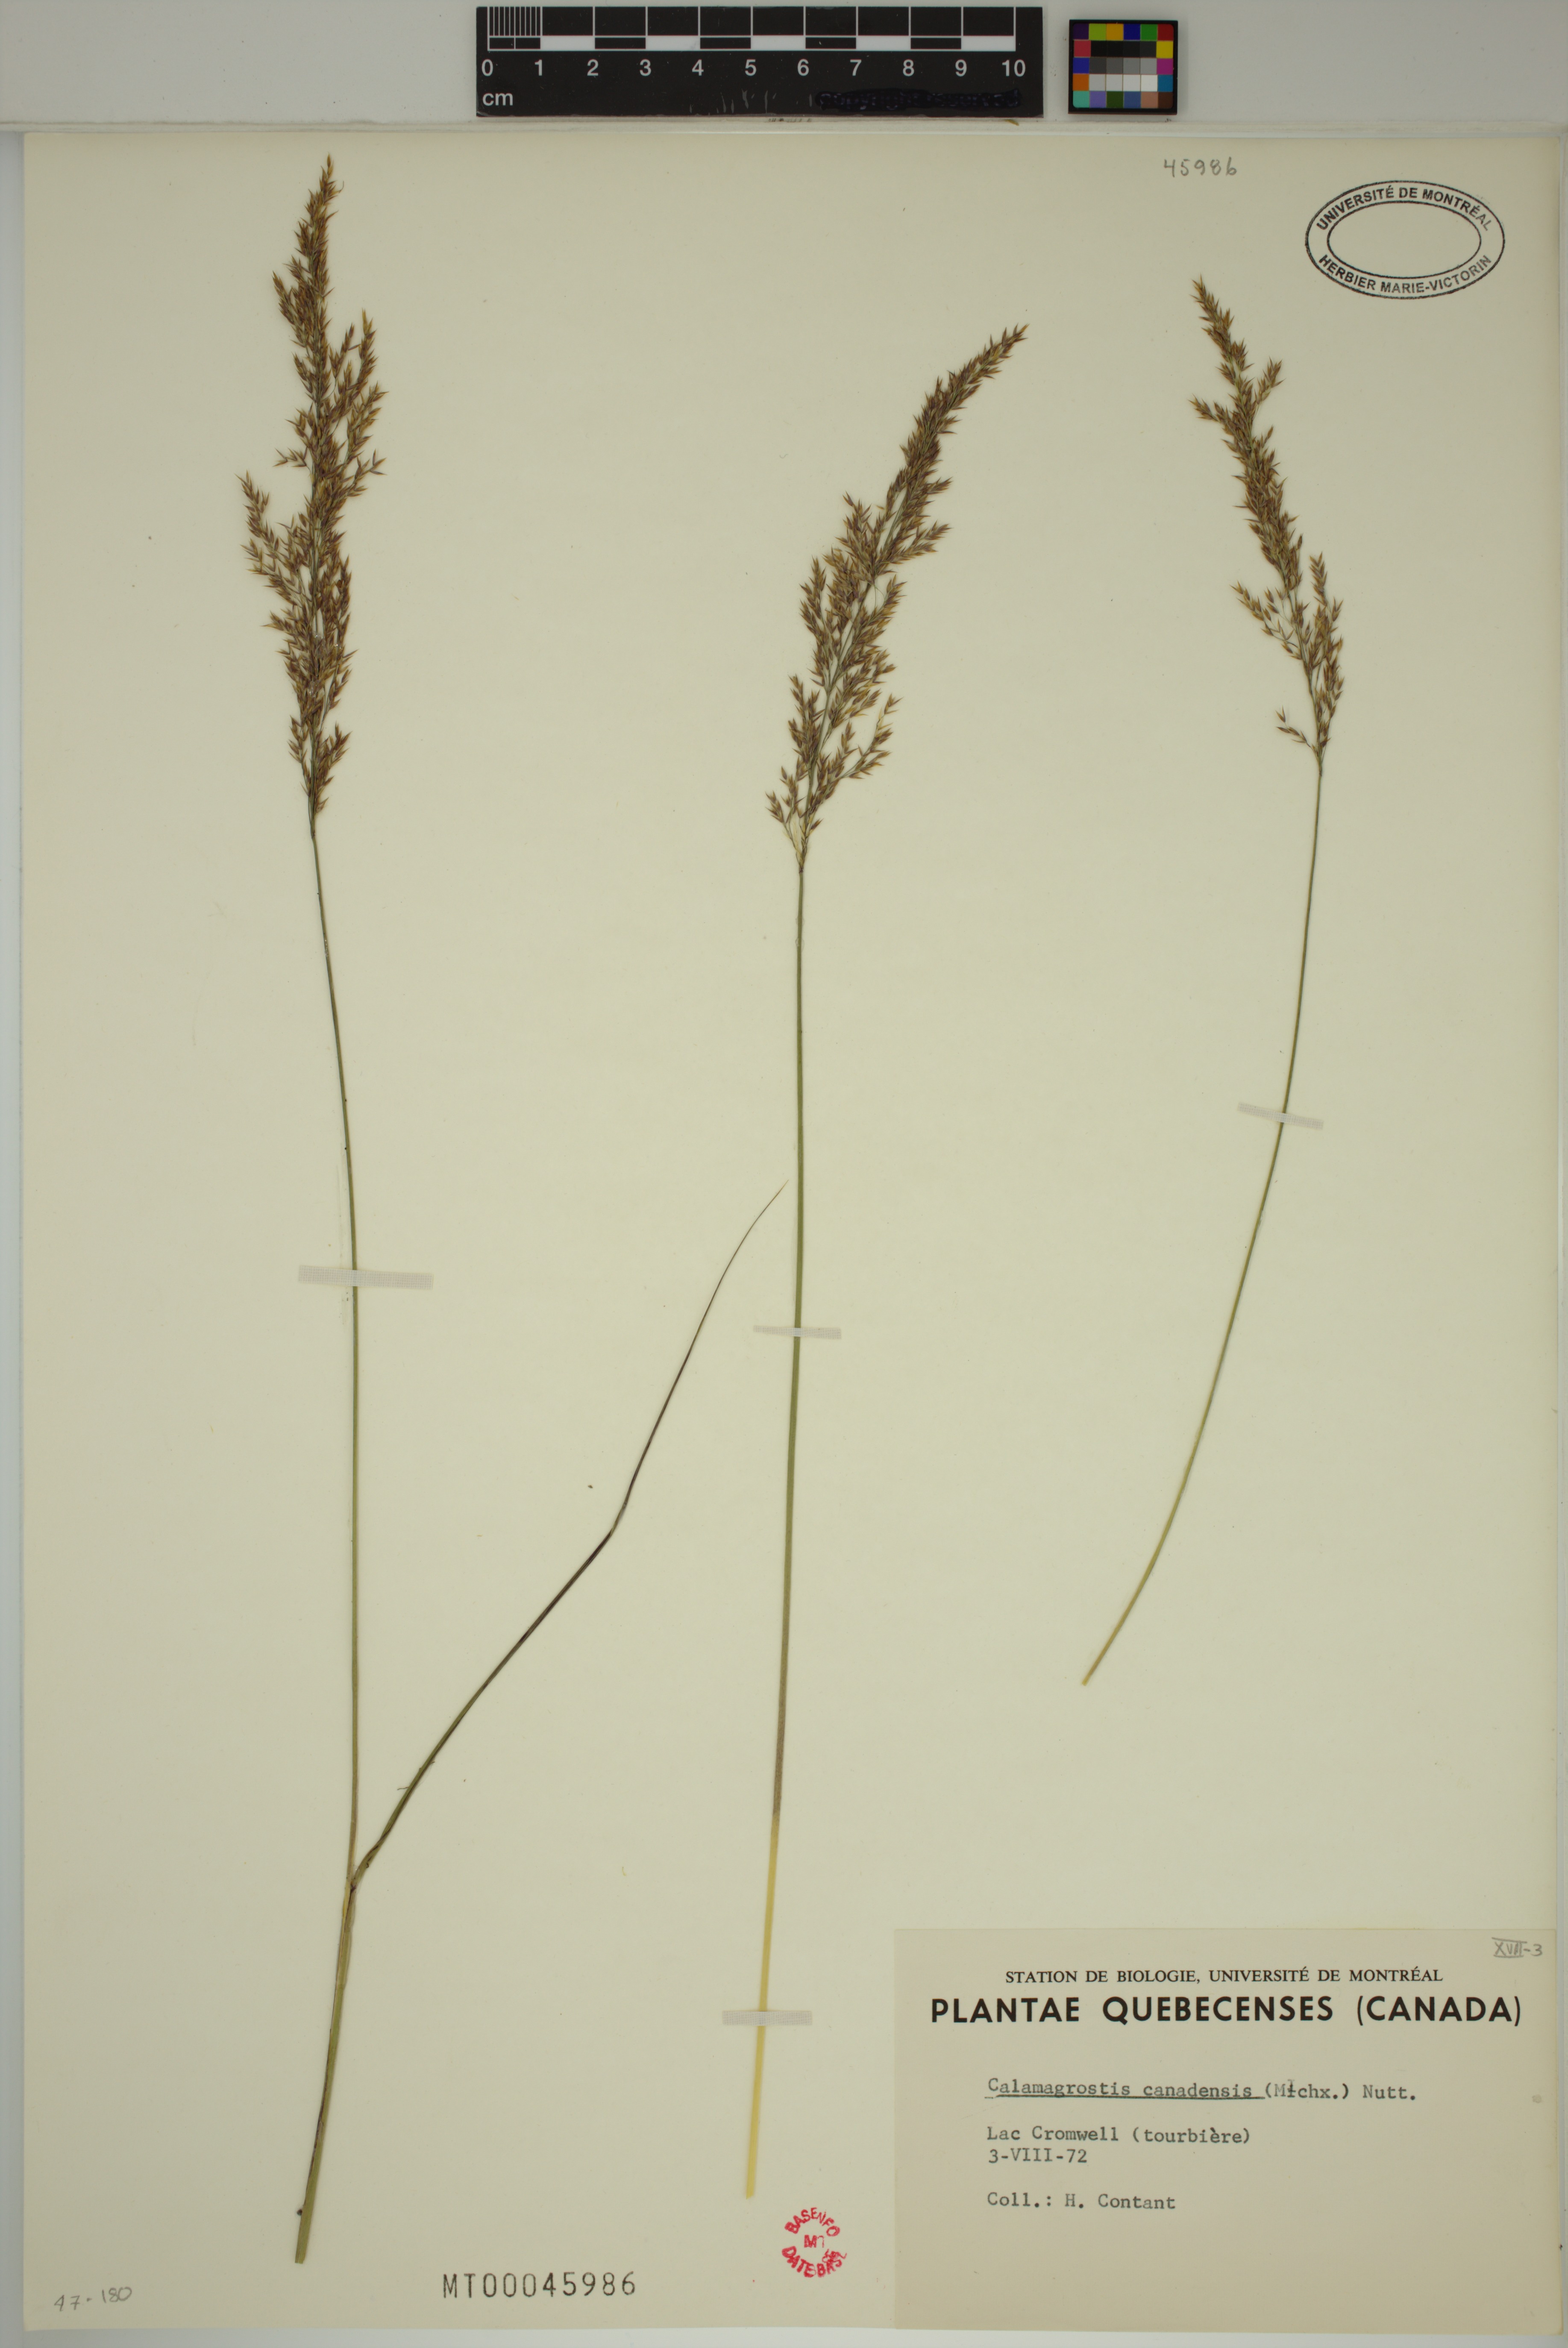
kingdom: Plantae
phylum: Tracheophyta
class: Liliopsida
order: Poales
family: Poaceae
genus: Calamagrostis
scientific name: Calamagrostis canadensis
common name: Canada bluejoint
